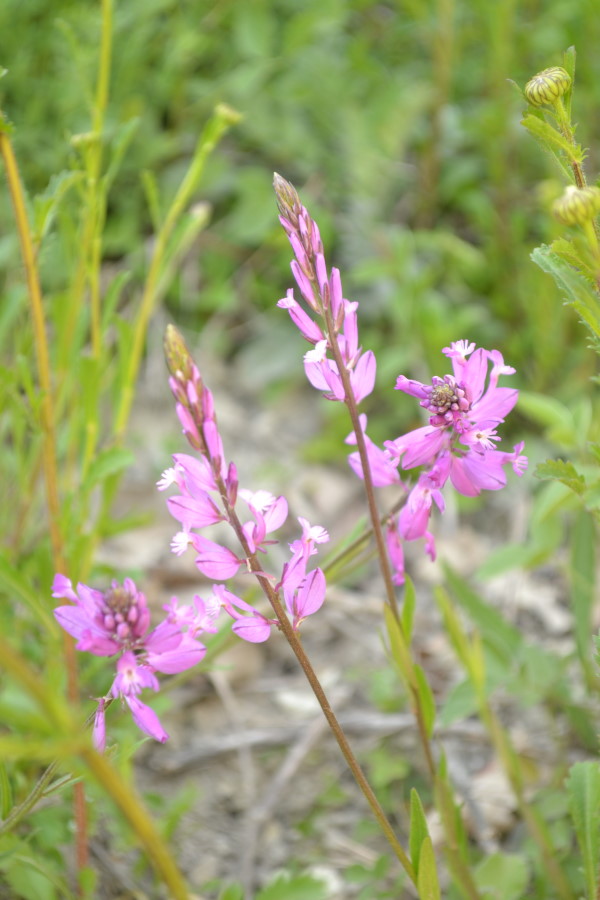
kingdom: Plantae
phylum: Tracheophyta
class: Magnoliopsida
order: Fabales
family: Polygalaceae
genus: Polygala
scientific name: Polygala
